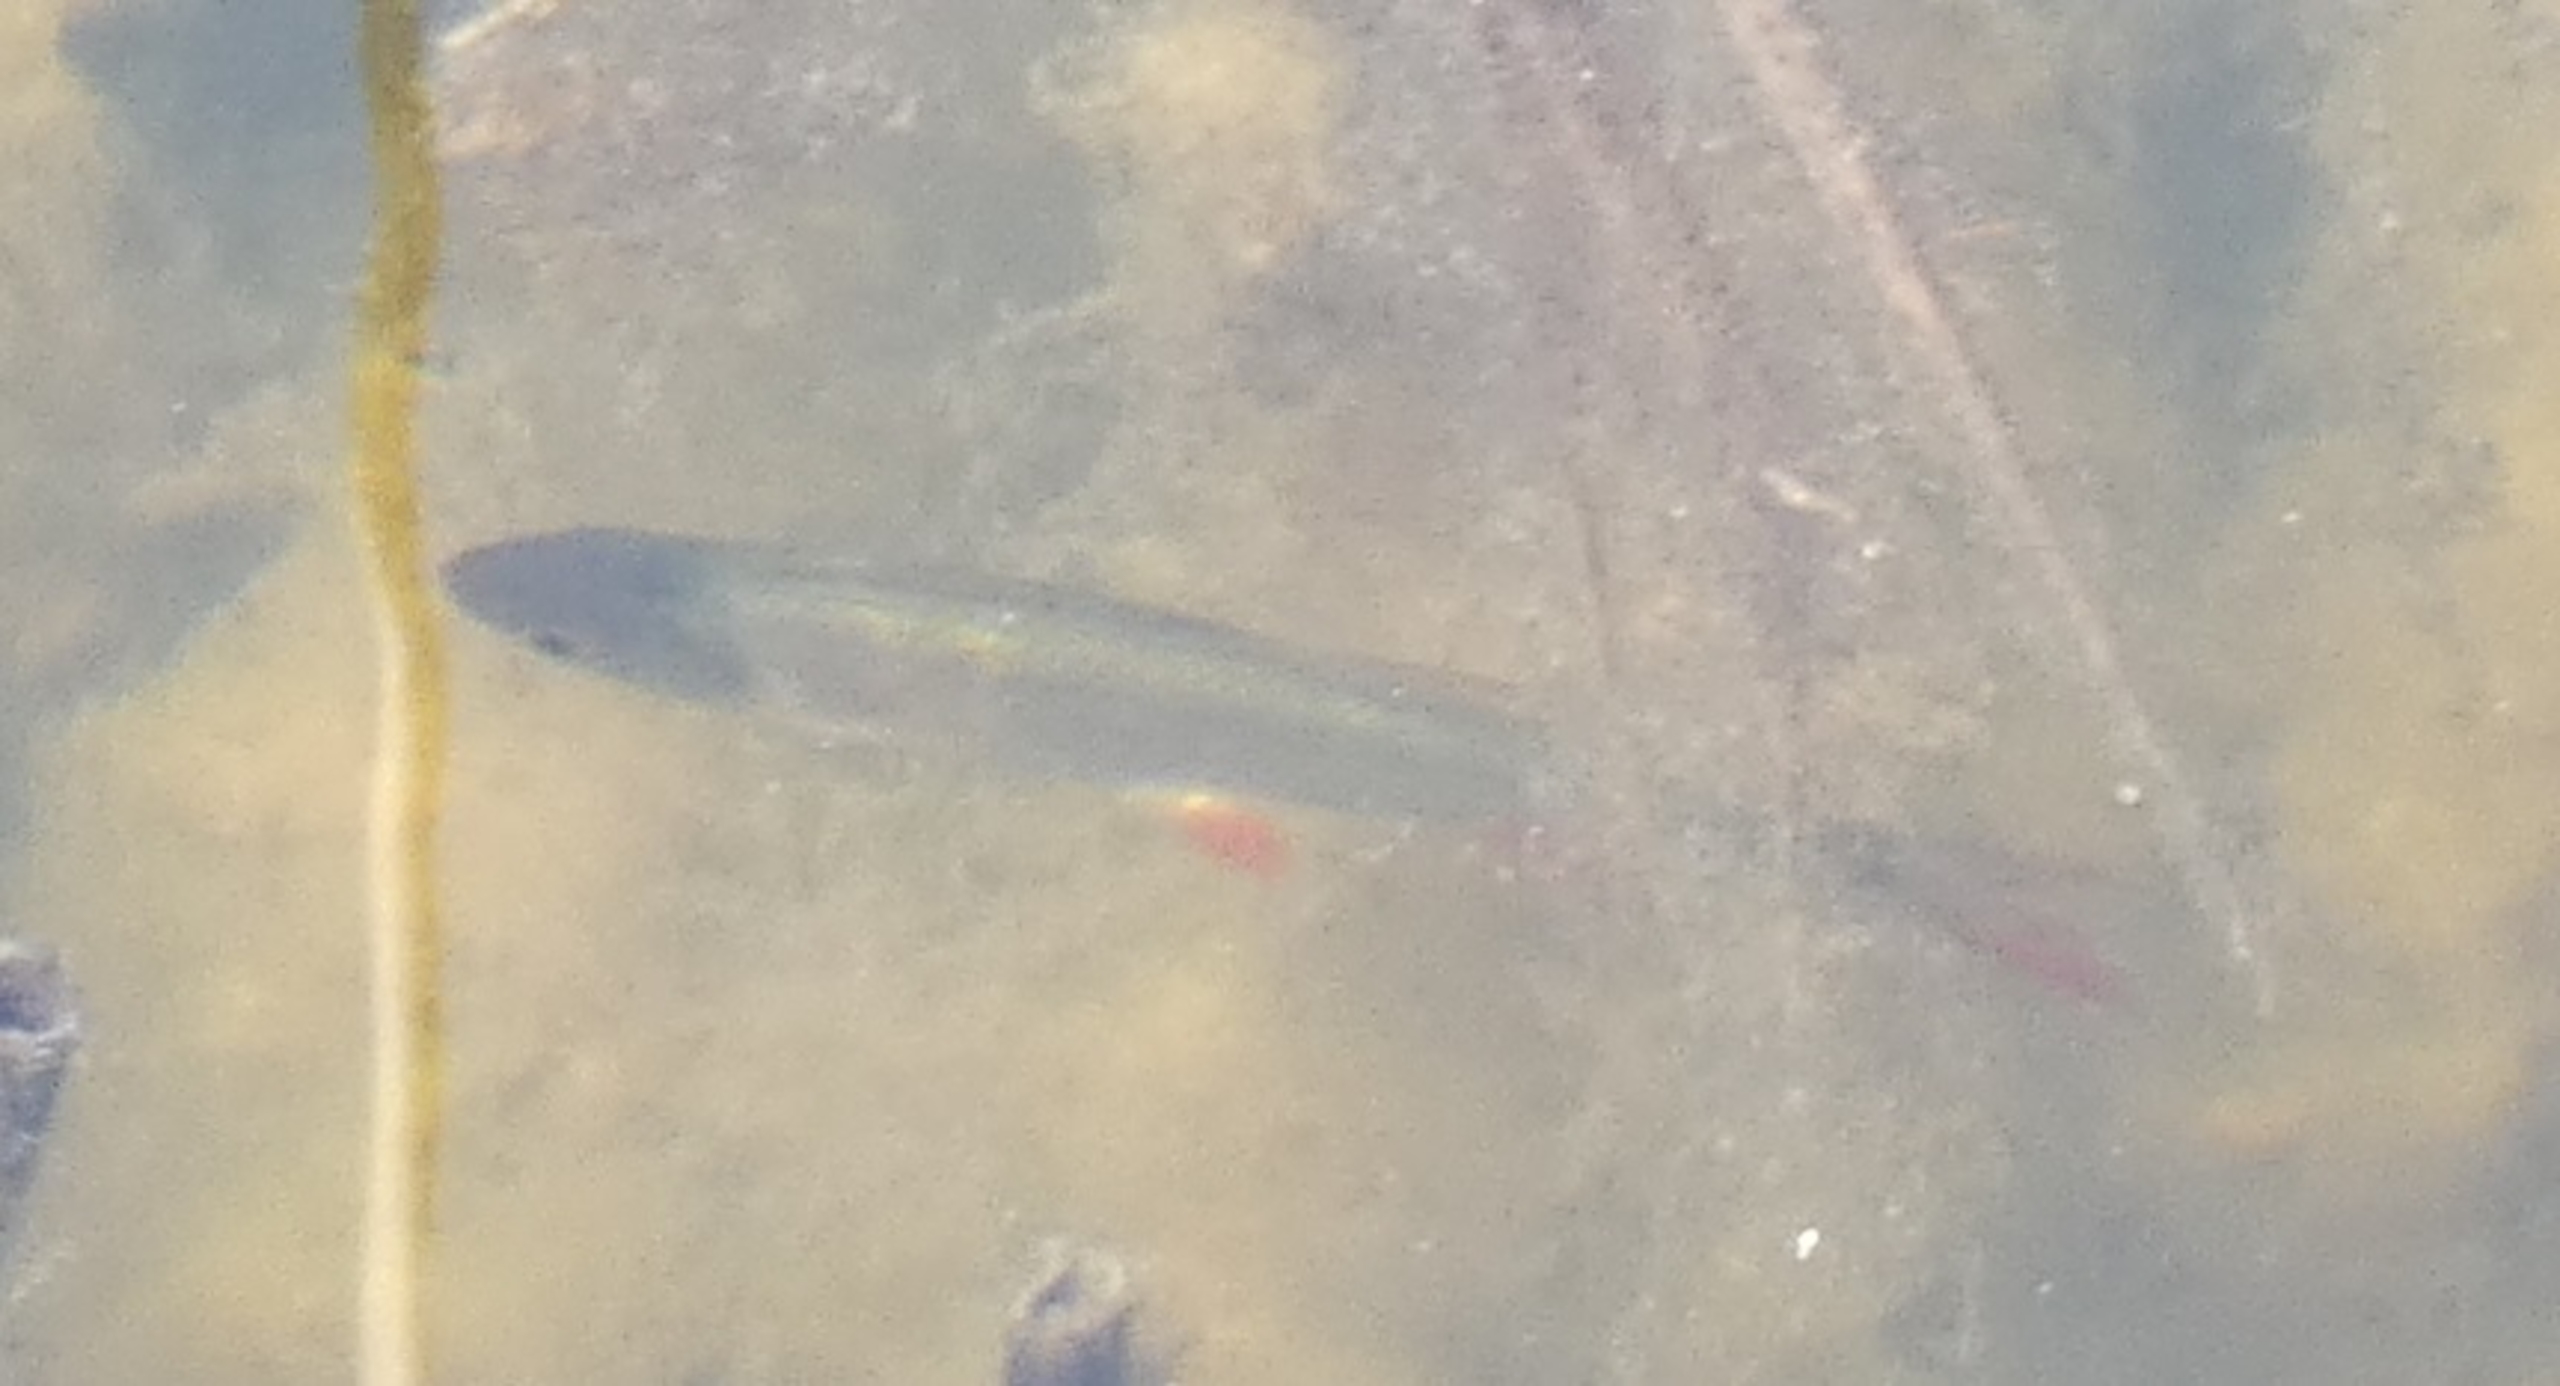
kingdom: Animalia
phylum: Chordata
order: Cypriniformes
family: Cyprinidae
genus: Scardinius
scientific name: Scardinius erythrophthalmus
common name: Rudskalle
